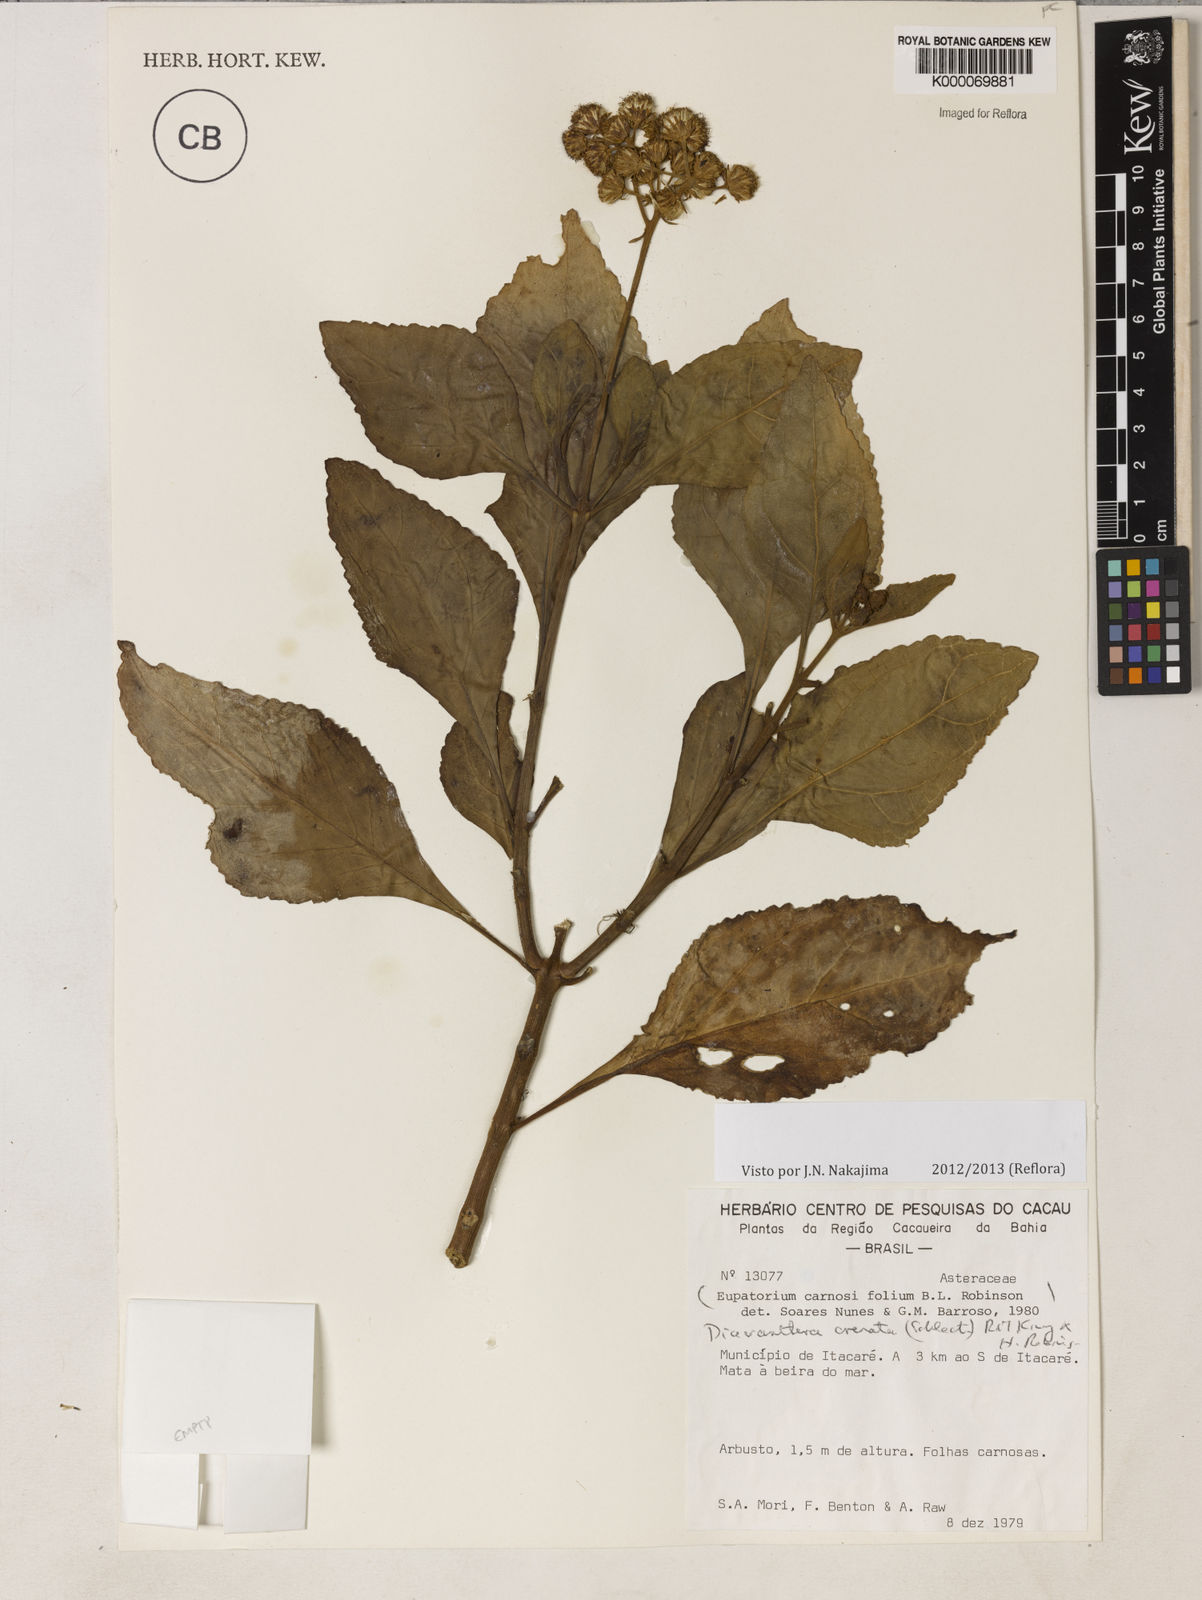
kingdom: Plantae
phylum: Tracheophyta
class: Magnoliopsida
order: Asterales
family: Asteraceae
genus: Diacranthera
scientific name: Diacranthera crenata
